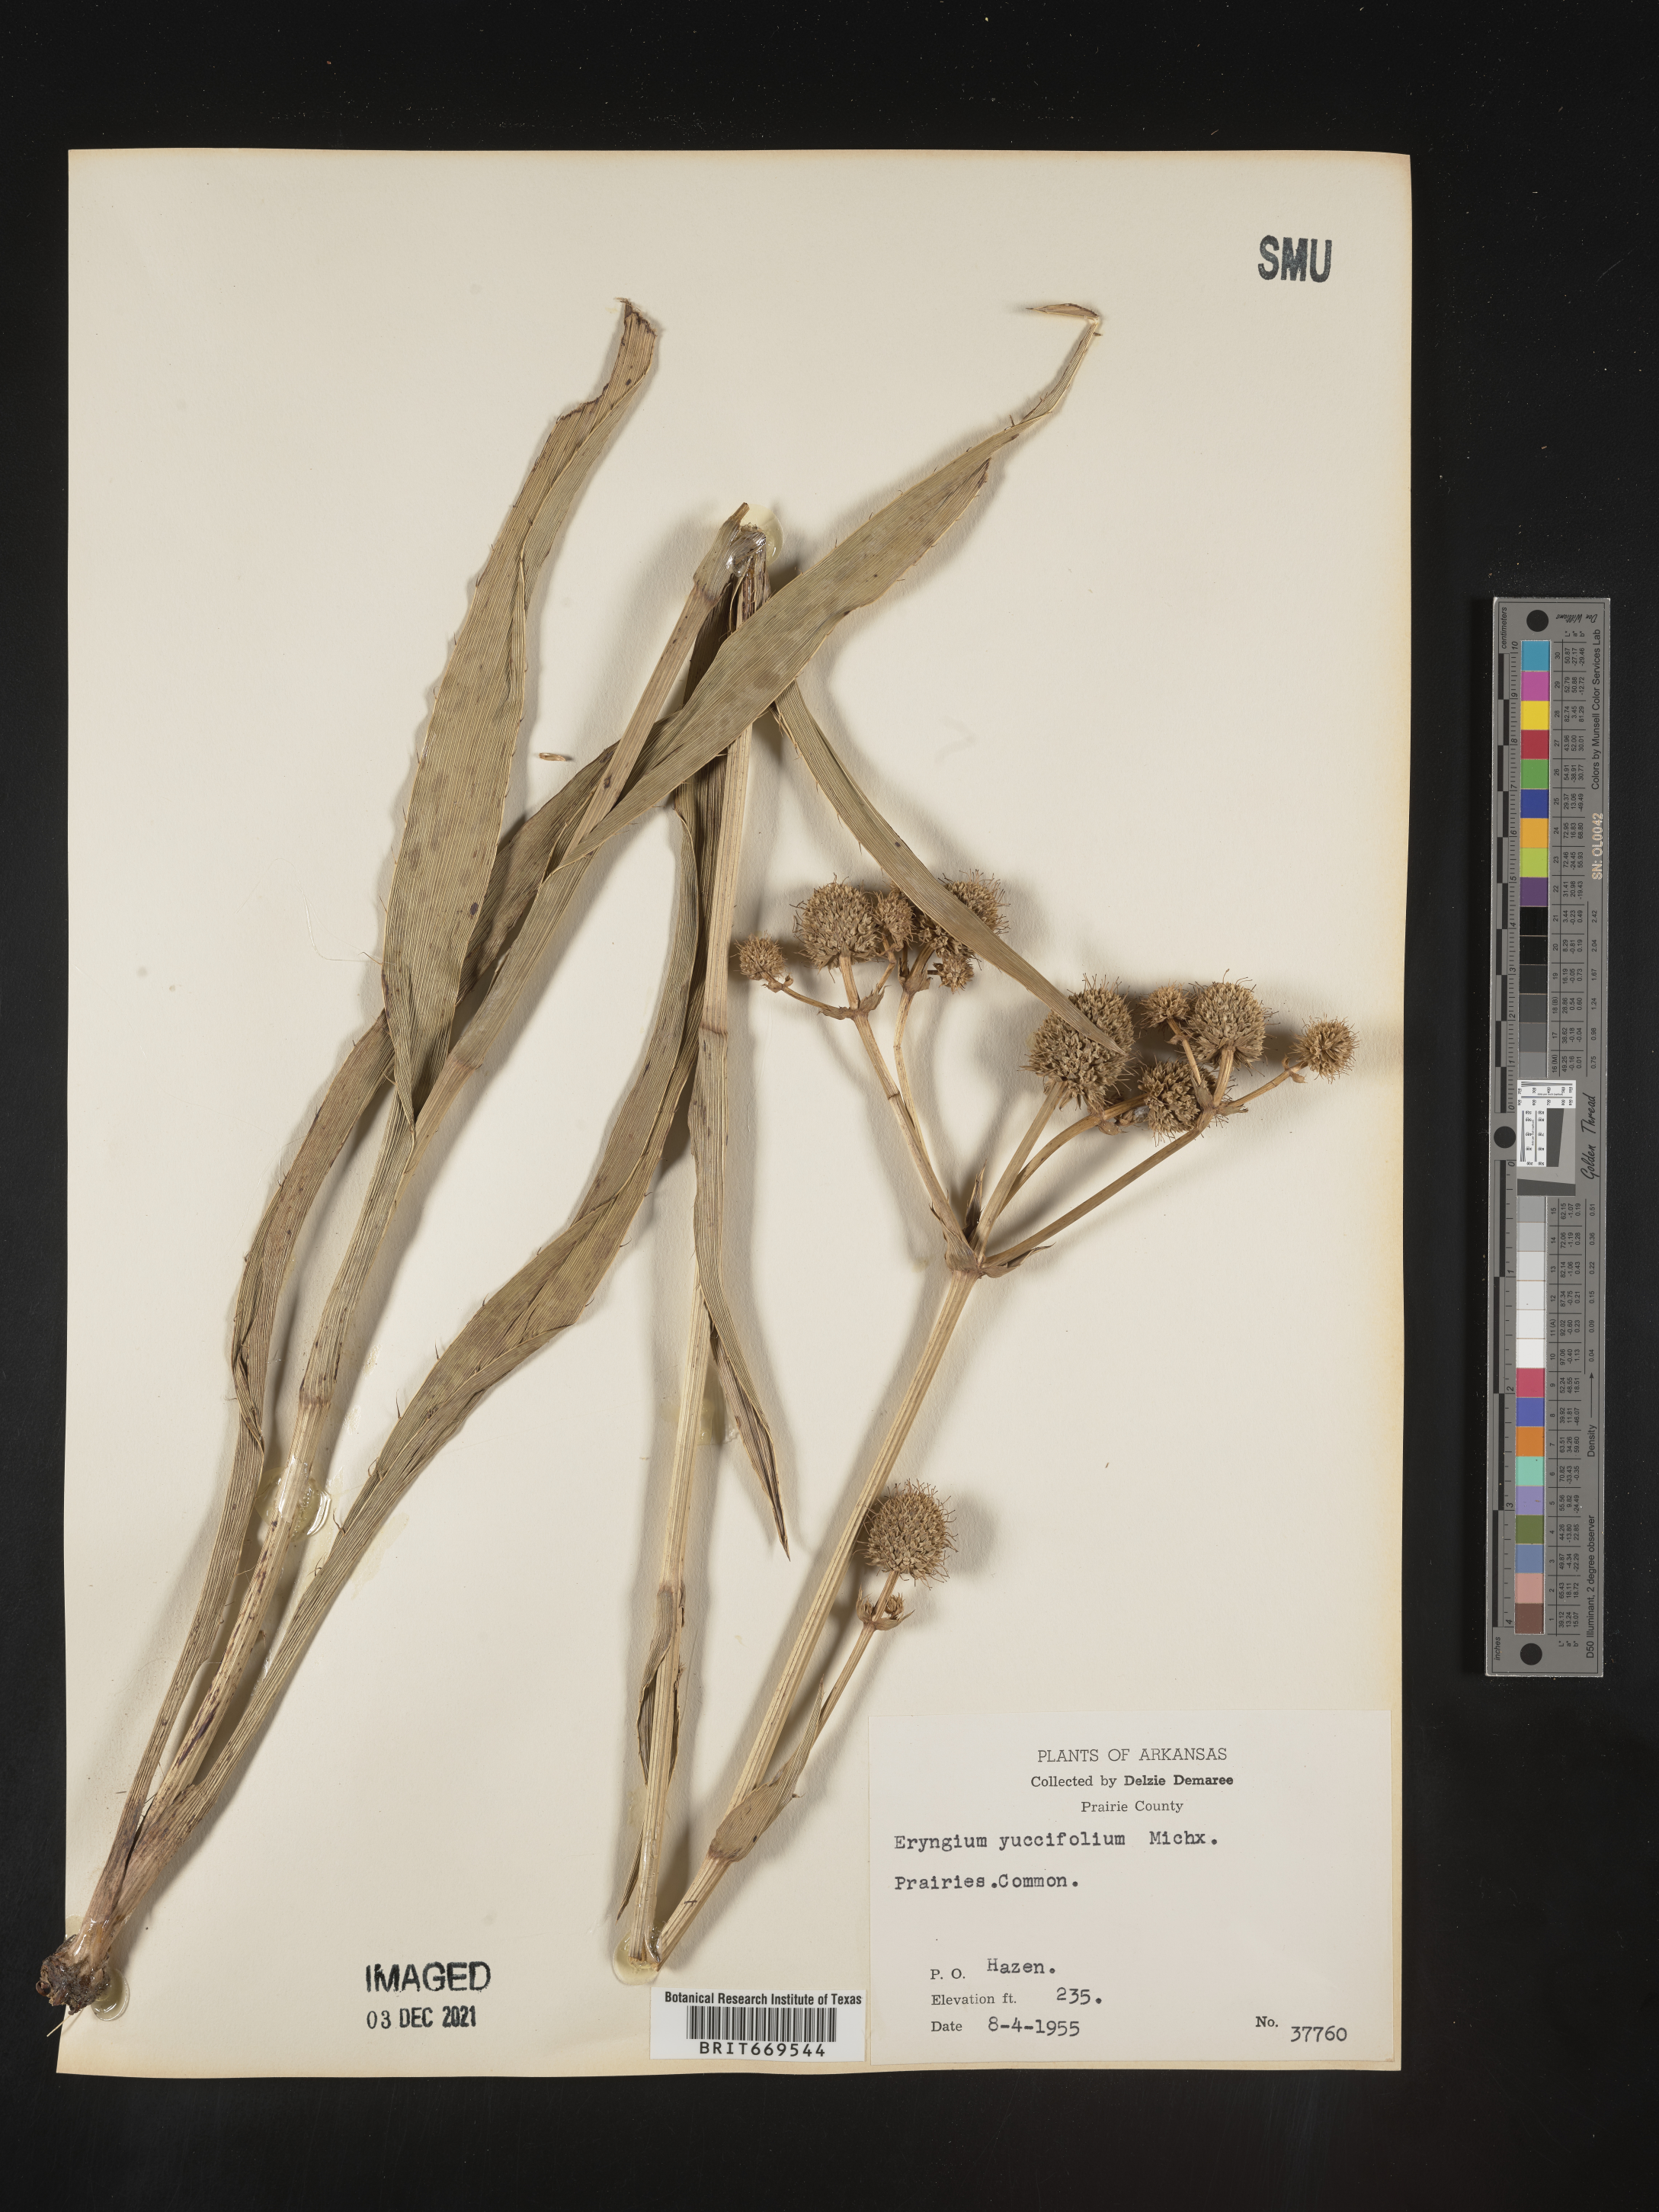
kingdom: Plantae
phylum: Tracheophyta
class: Magnoliopsida
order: Apiales
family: Apiaceae
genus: Eryngium
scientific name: Eryngium yuccifolium
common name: Button eryngo
